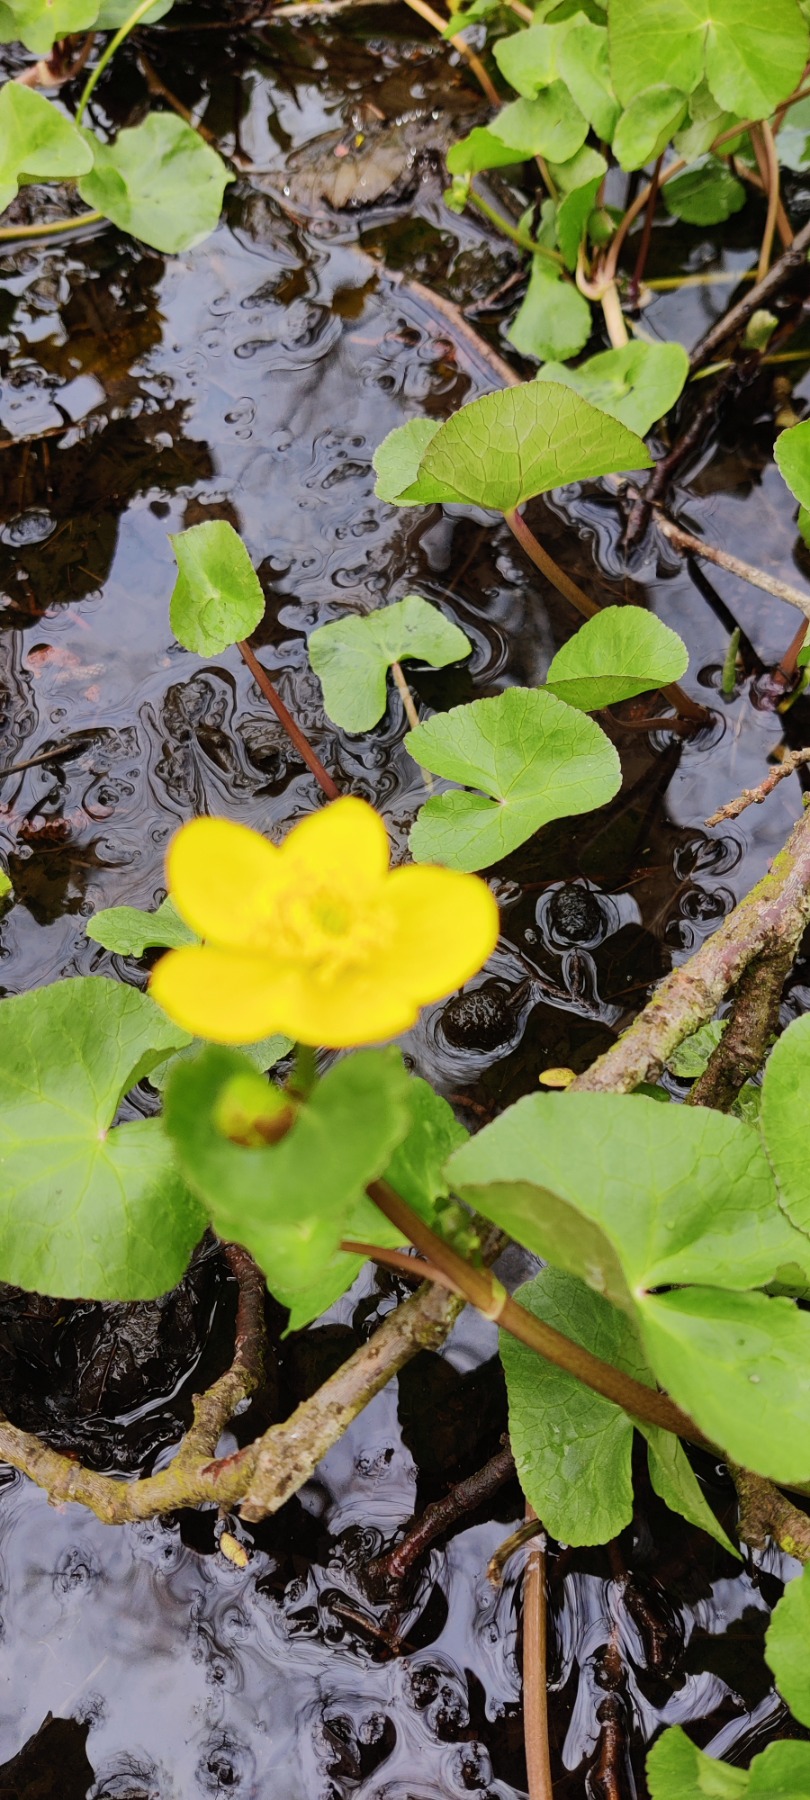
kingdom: Plantae
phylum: Tracheophyta
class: Magnoliopsida
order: Ranunculales
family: Ranunculaceae
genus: Caltha
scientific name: Caltha palustris
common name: Eng-kabbeleje
